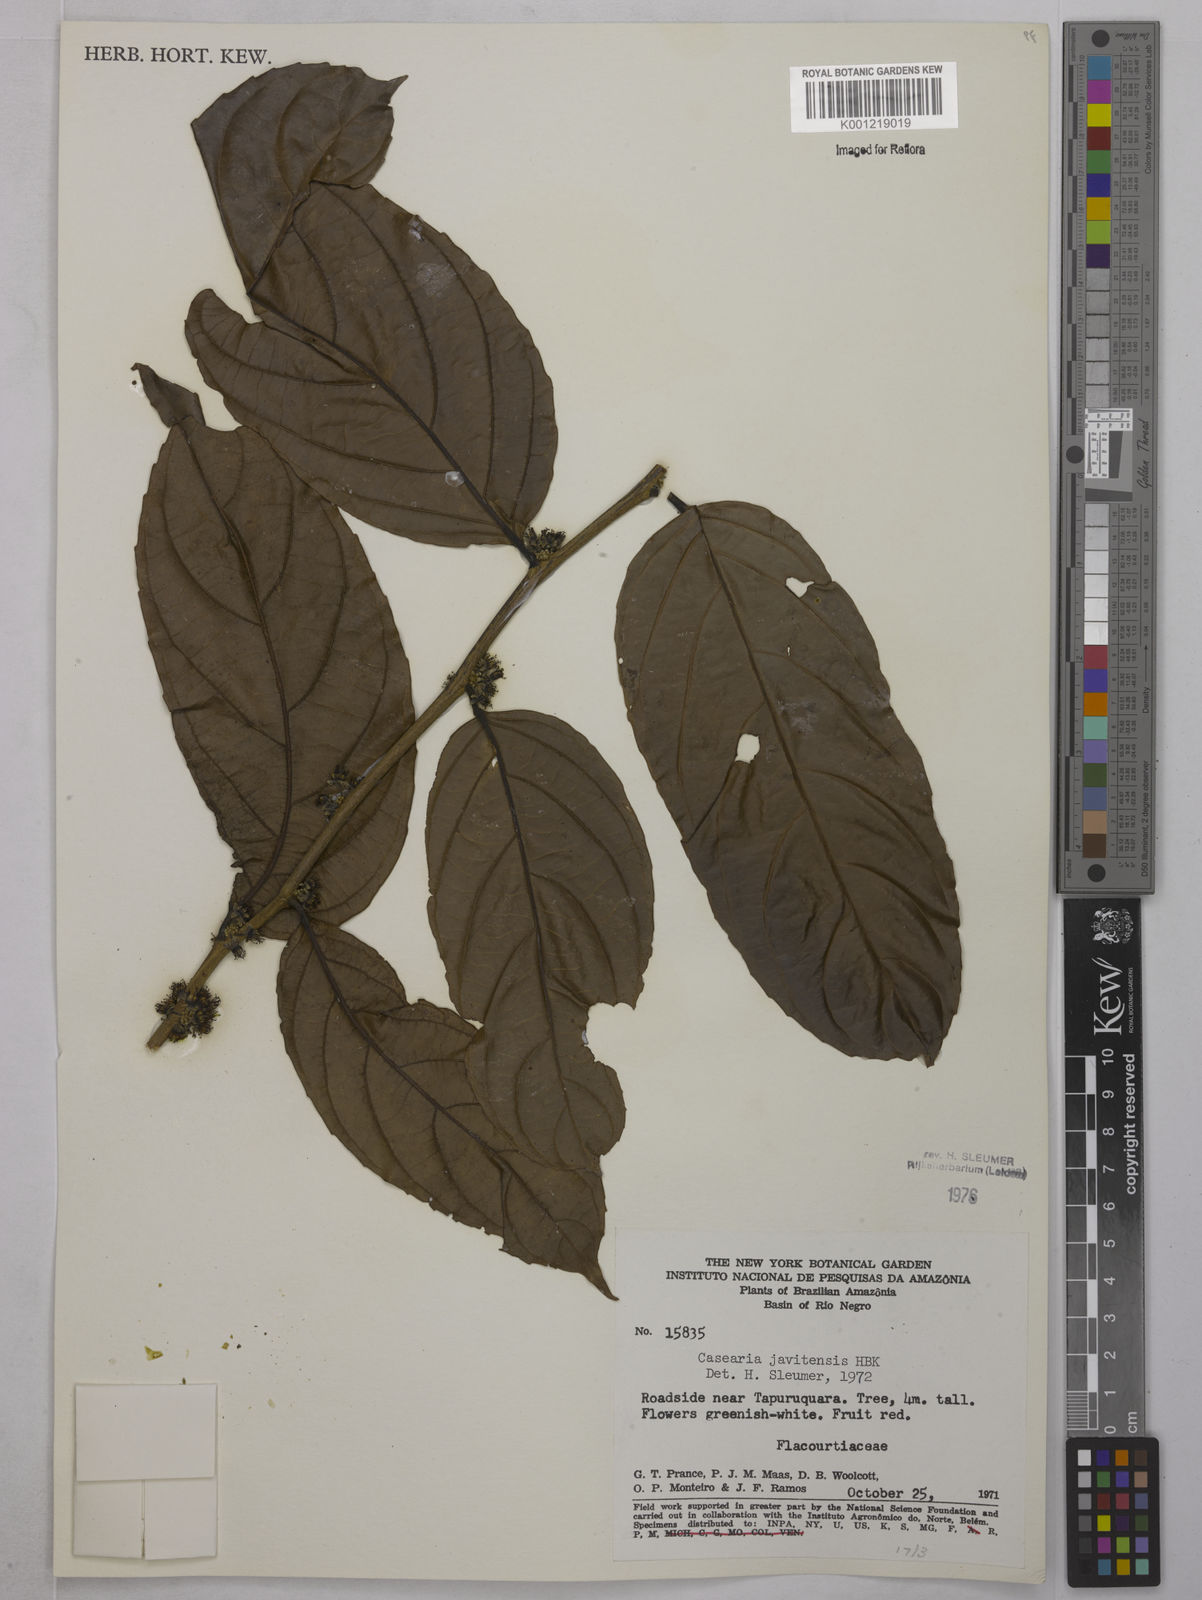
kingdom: Plantae
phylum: Tracheophyta
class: Magnoliopsida
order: Malpighiales
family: Salicaceae
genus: Piparea
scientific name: Piparea multiflora
